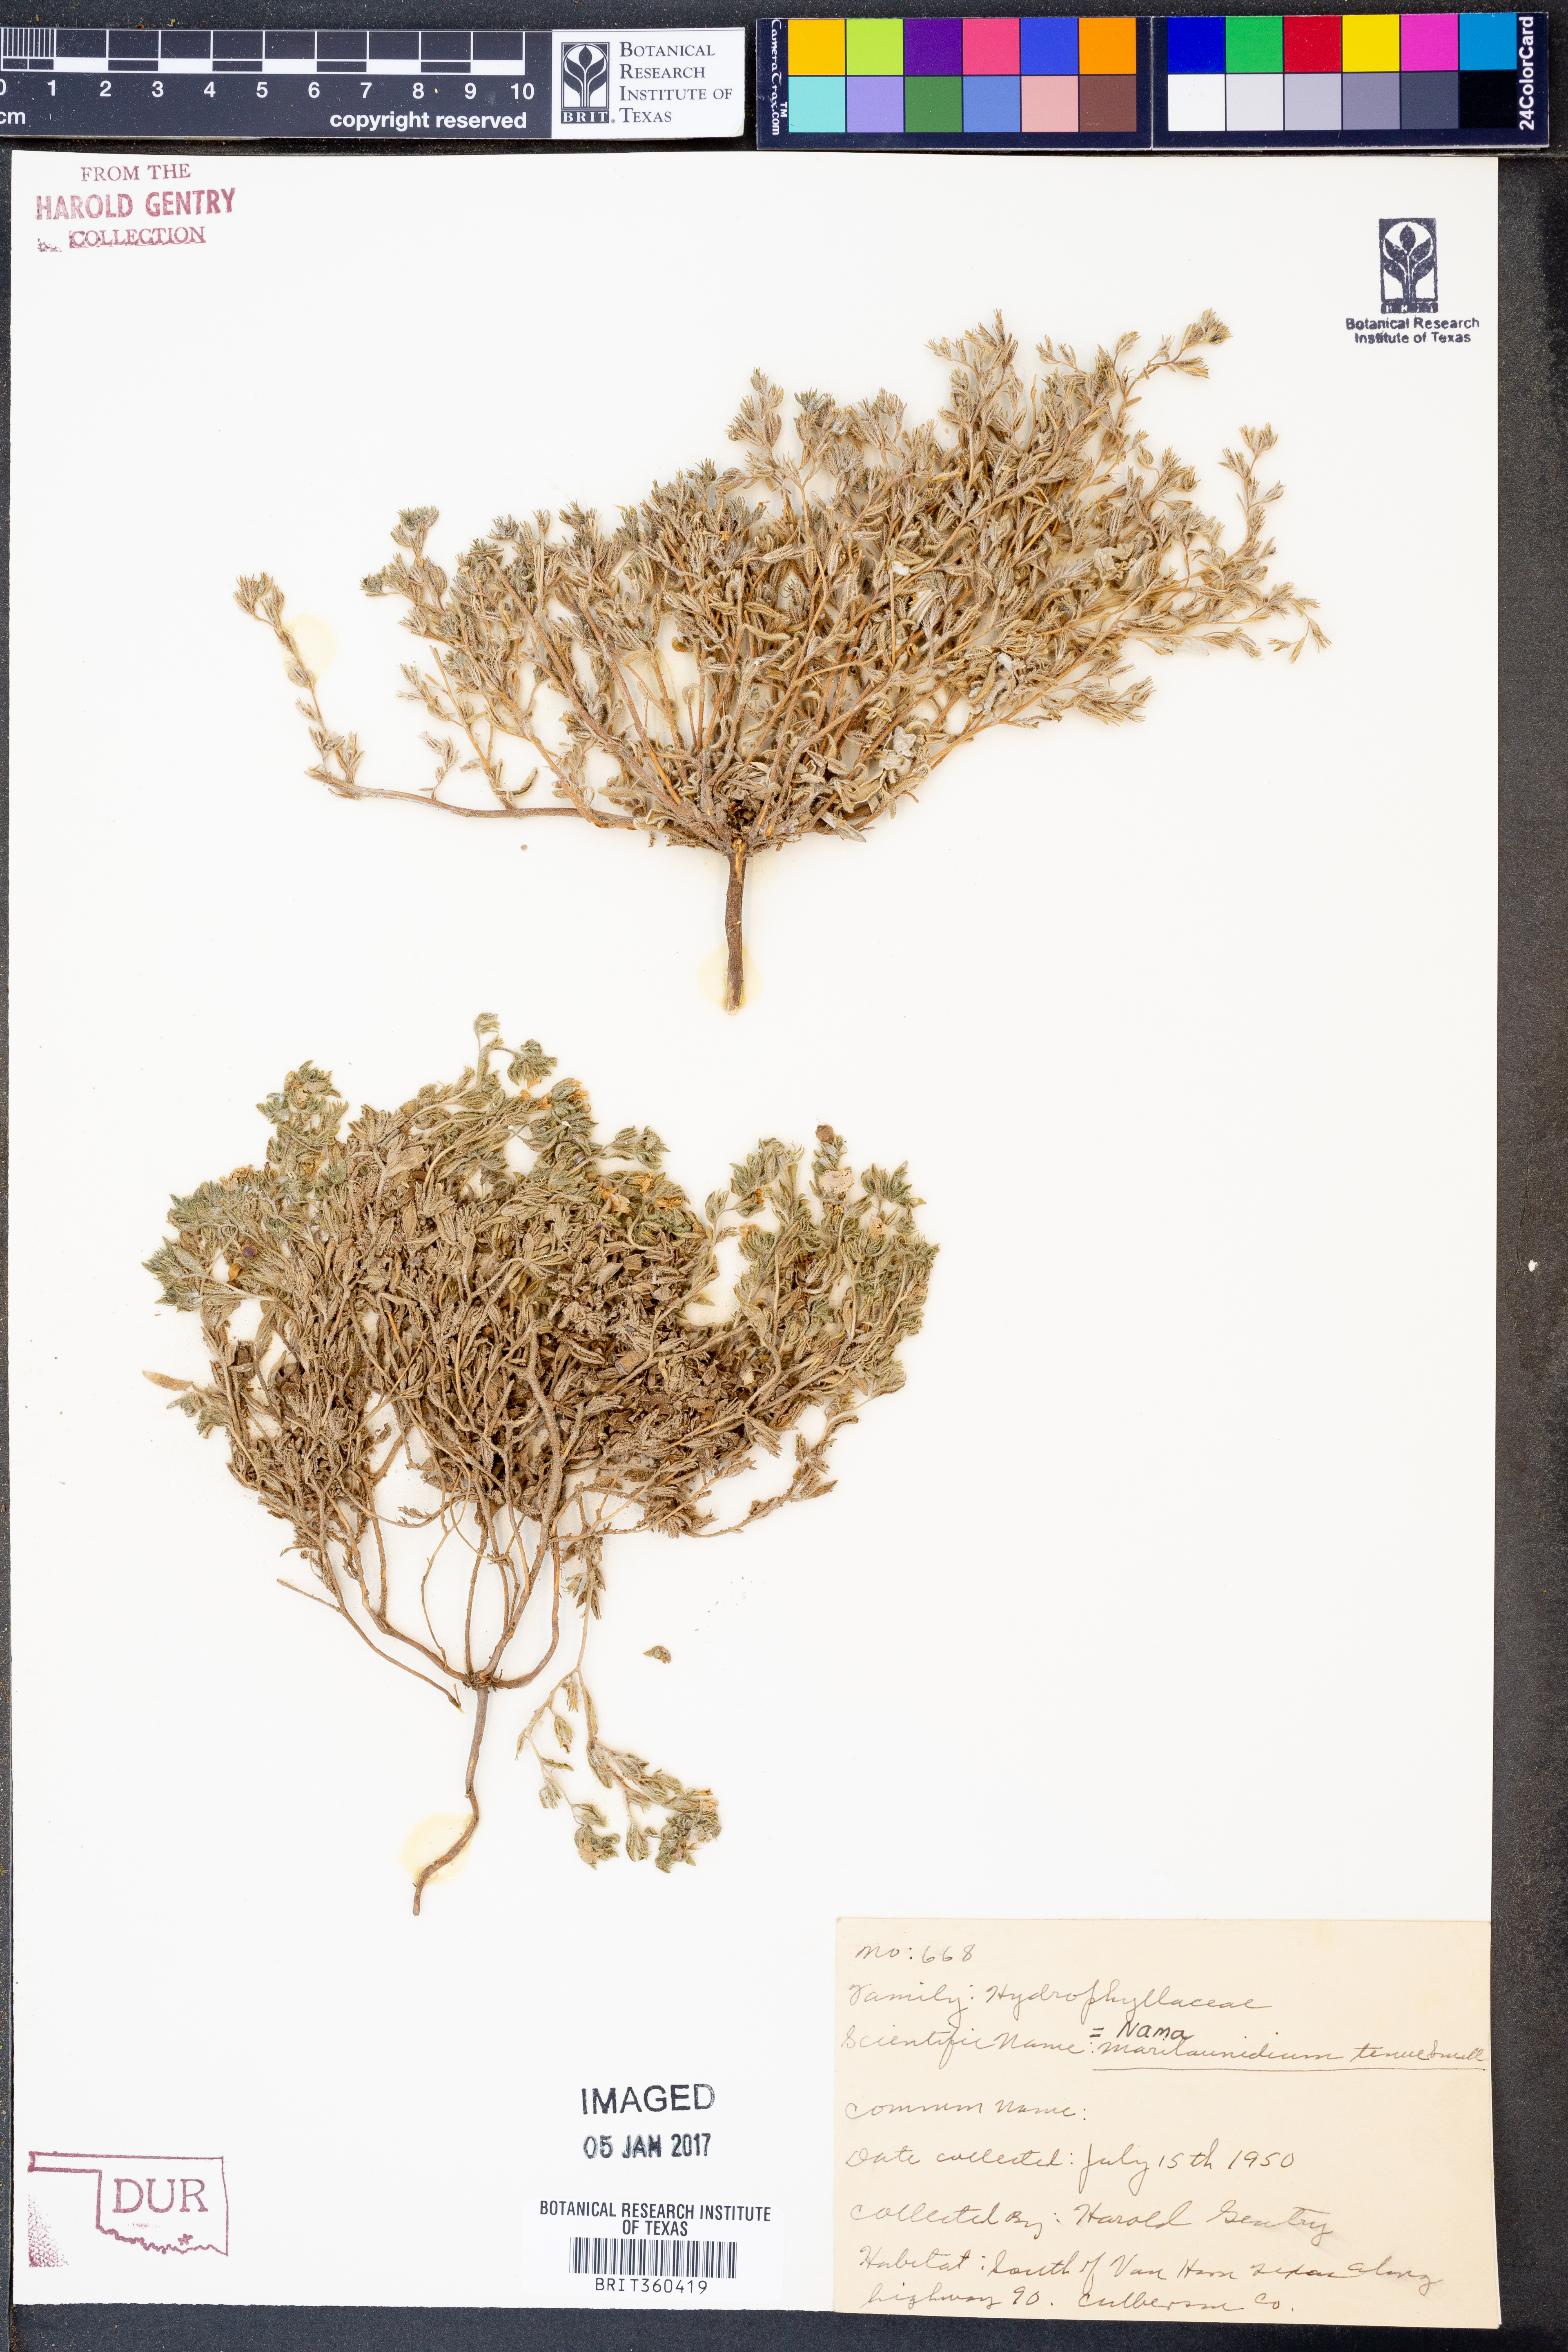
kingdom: Plantae
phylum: Tracheophyta
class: Magnoliopsida
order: Boraginales
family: Namaceae
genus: Nama
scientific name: Nama hispida
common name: Bristly nama
